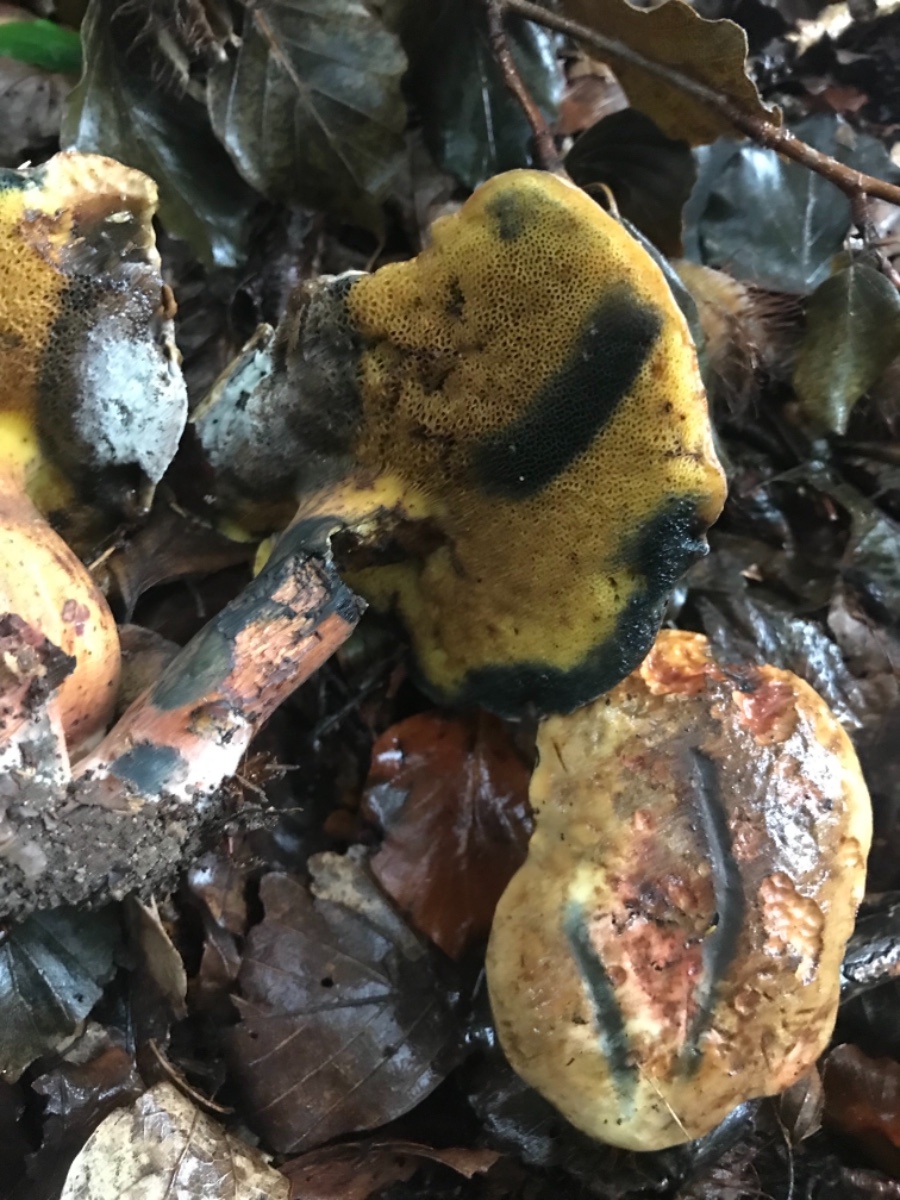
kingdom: Fungi
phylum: Basidiomycota
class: Agaricomycetes
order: Boletales
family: Boletaceae
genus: Cyanoboletus
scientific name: Cyanoboletus pulverulentus
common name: sortblånende rørhat
